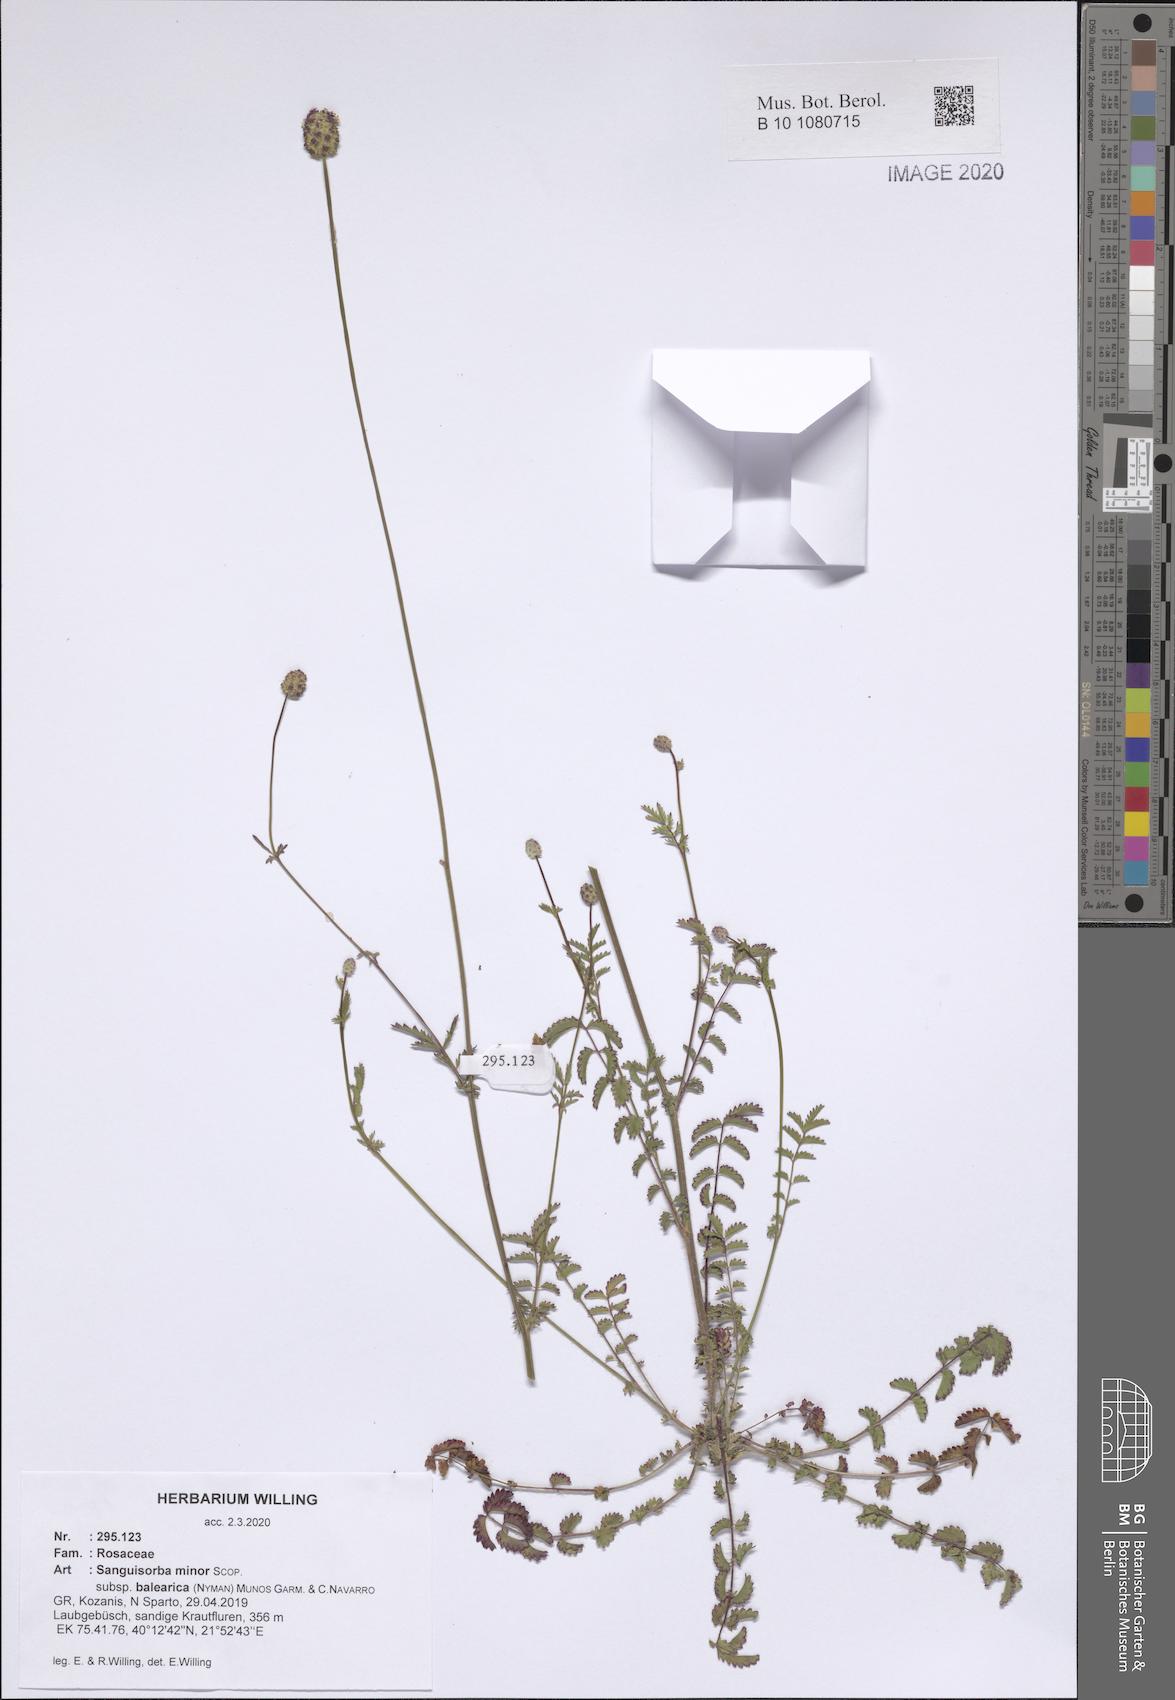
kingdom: Plantae
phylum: Tracheophyta
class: Magnoliopsida
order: Rosales
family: Rosaceae
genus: Poterium
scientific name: Poterium sanguisorba
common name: Salad burnet
